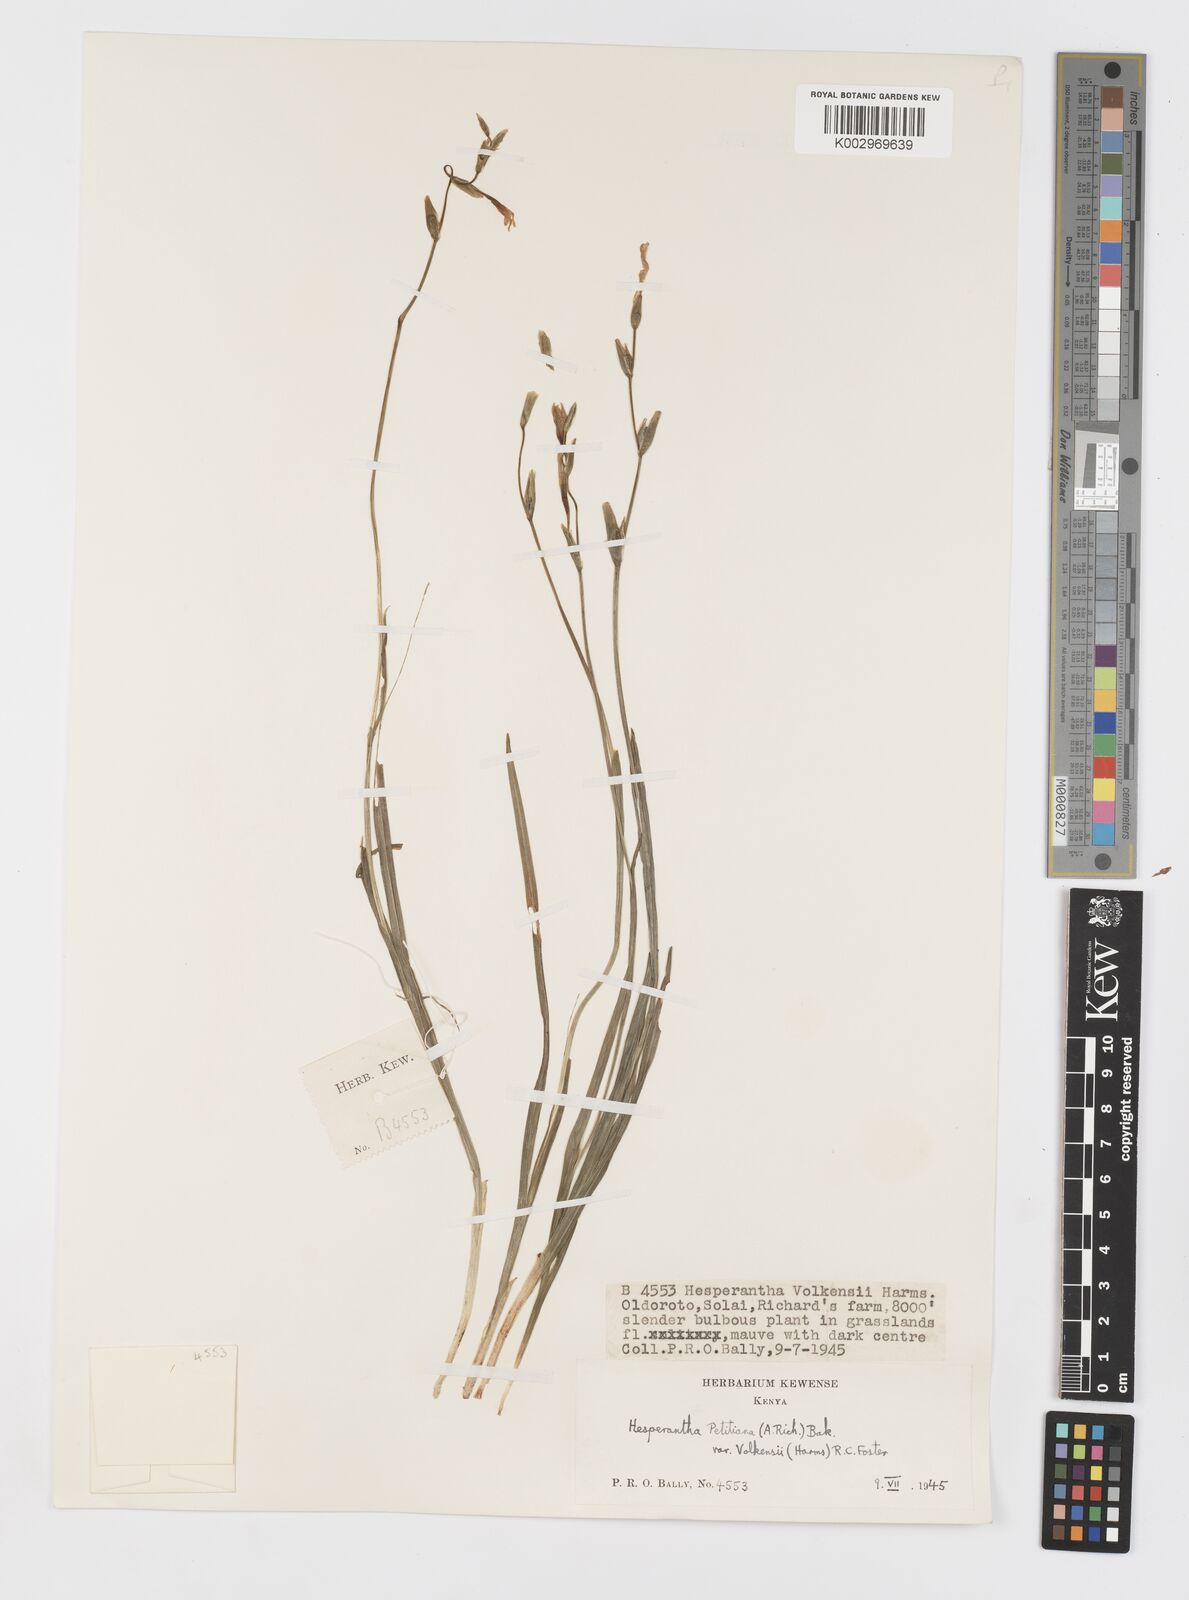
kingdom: Plantae
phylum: Tracheophyta
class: Liliopsida
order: Asparagales
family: Iridaceae
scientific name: Iridaceae
